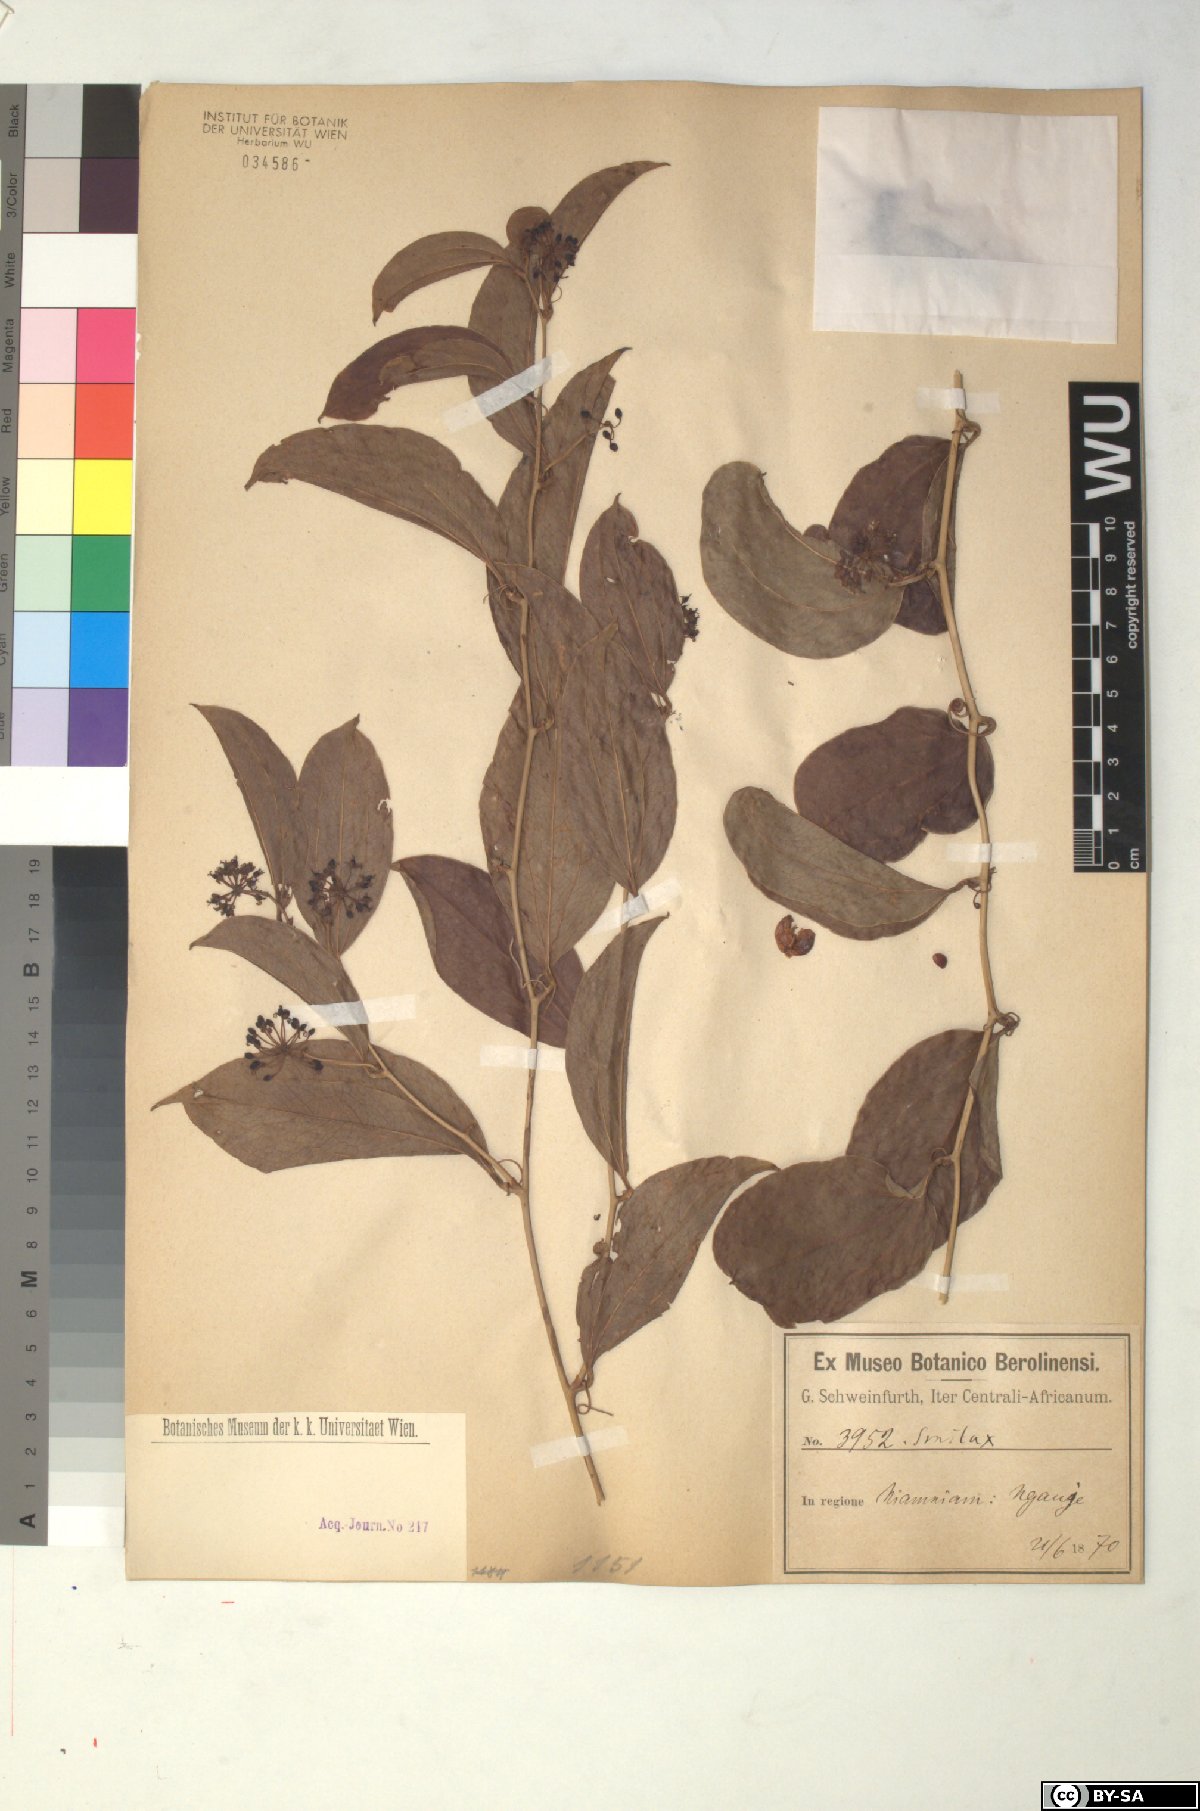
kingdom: Plantae
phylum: Tracheophyta
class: Liliopsida
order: Liliales
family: Smilacaceae
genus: Smilax
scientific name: Smilax
